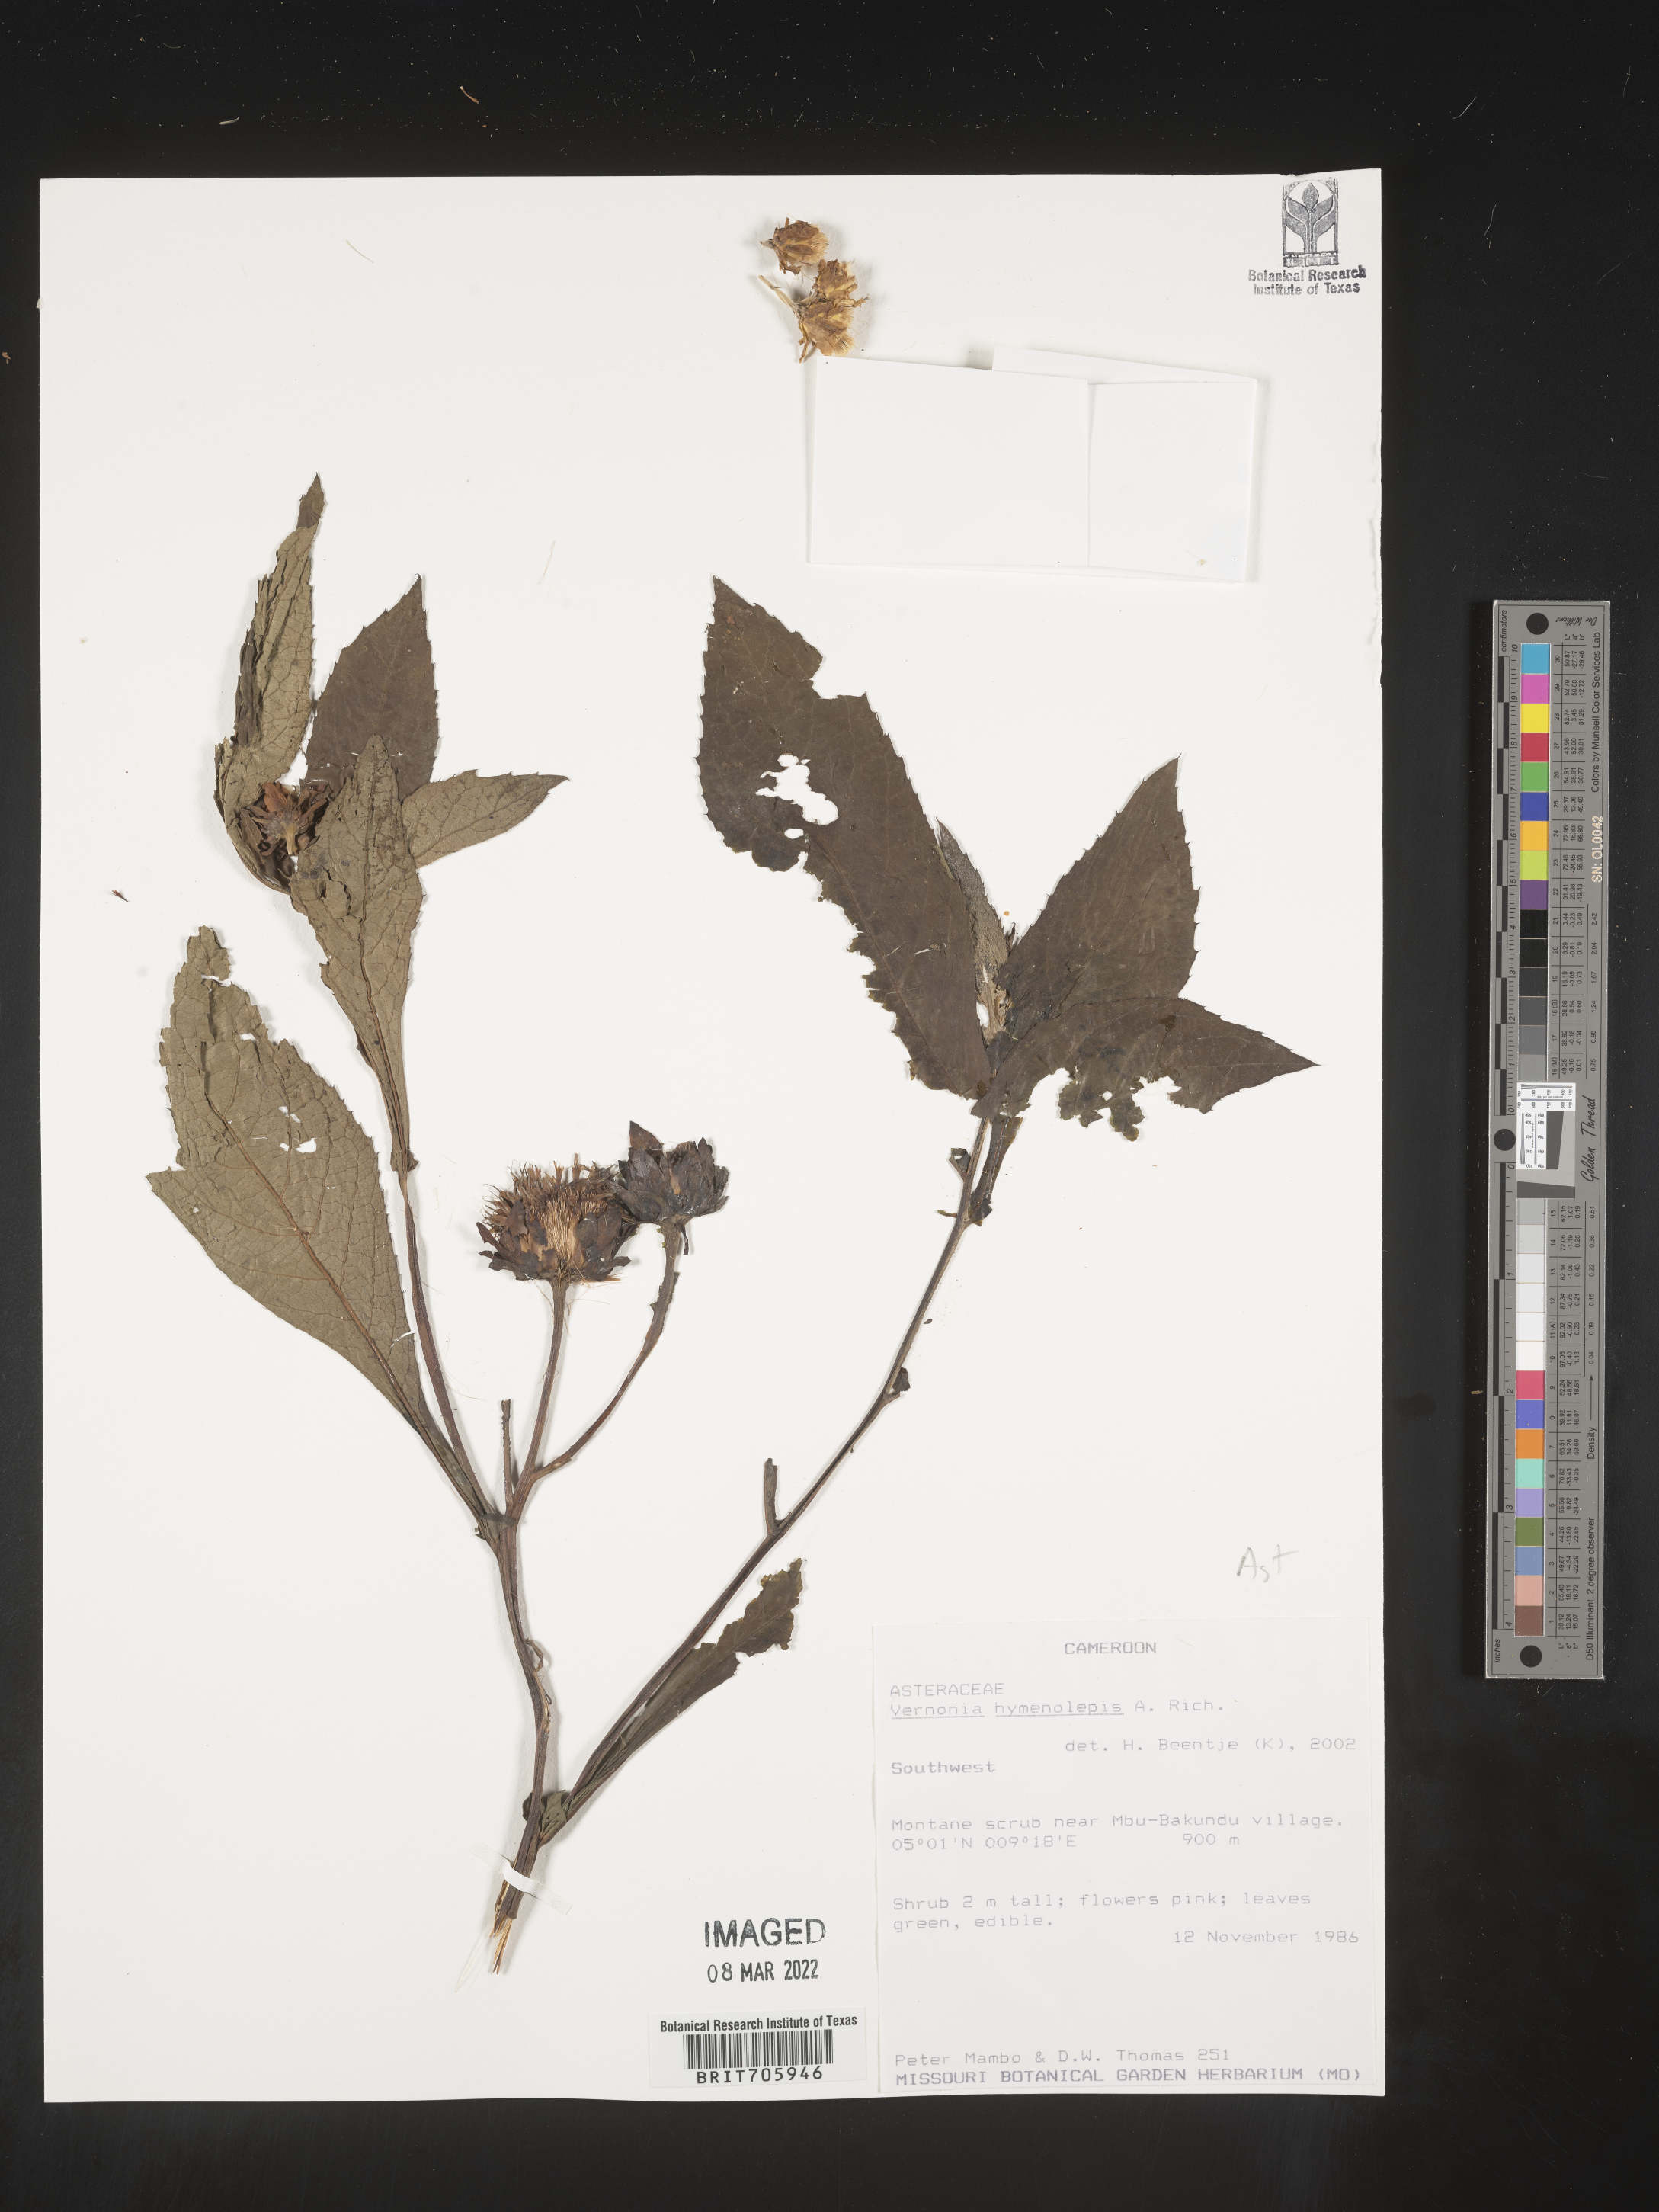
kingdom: Plantae
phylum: Tracheophyta
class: Magnoliopsida
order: Asterales
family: Asteraceae
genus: Vernonia
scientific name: Vernonia
